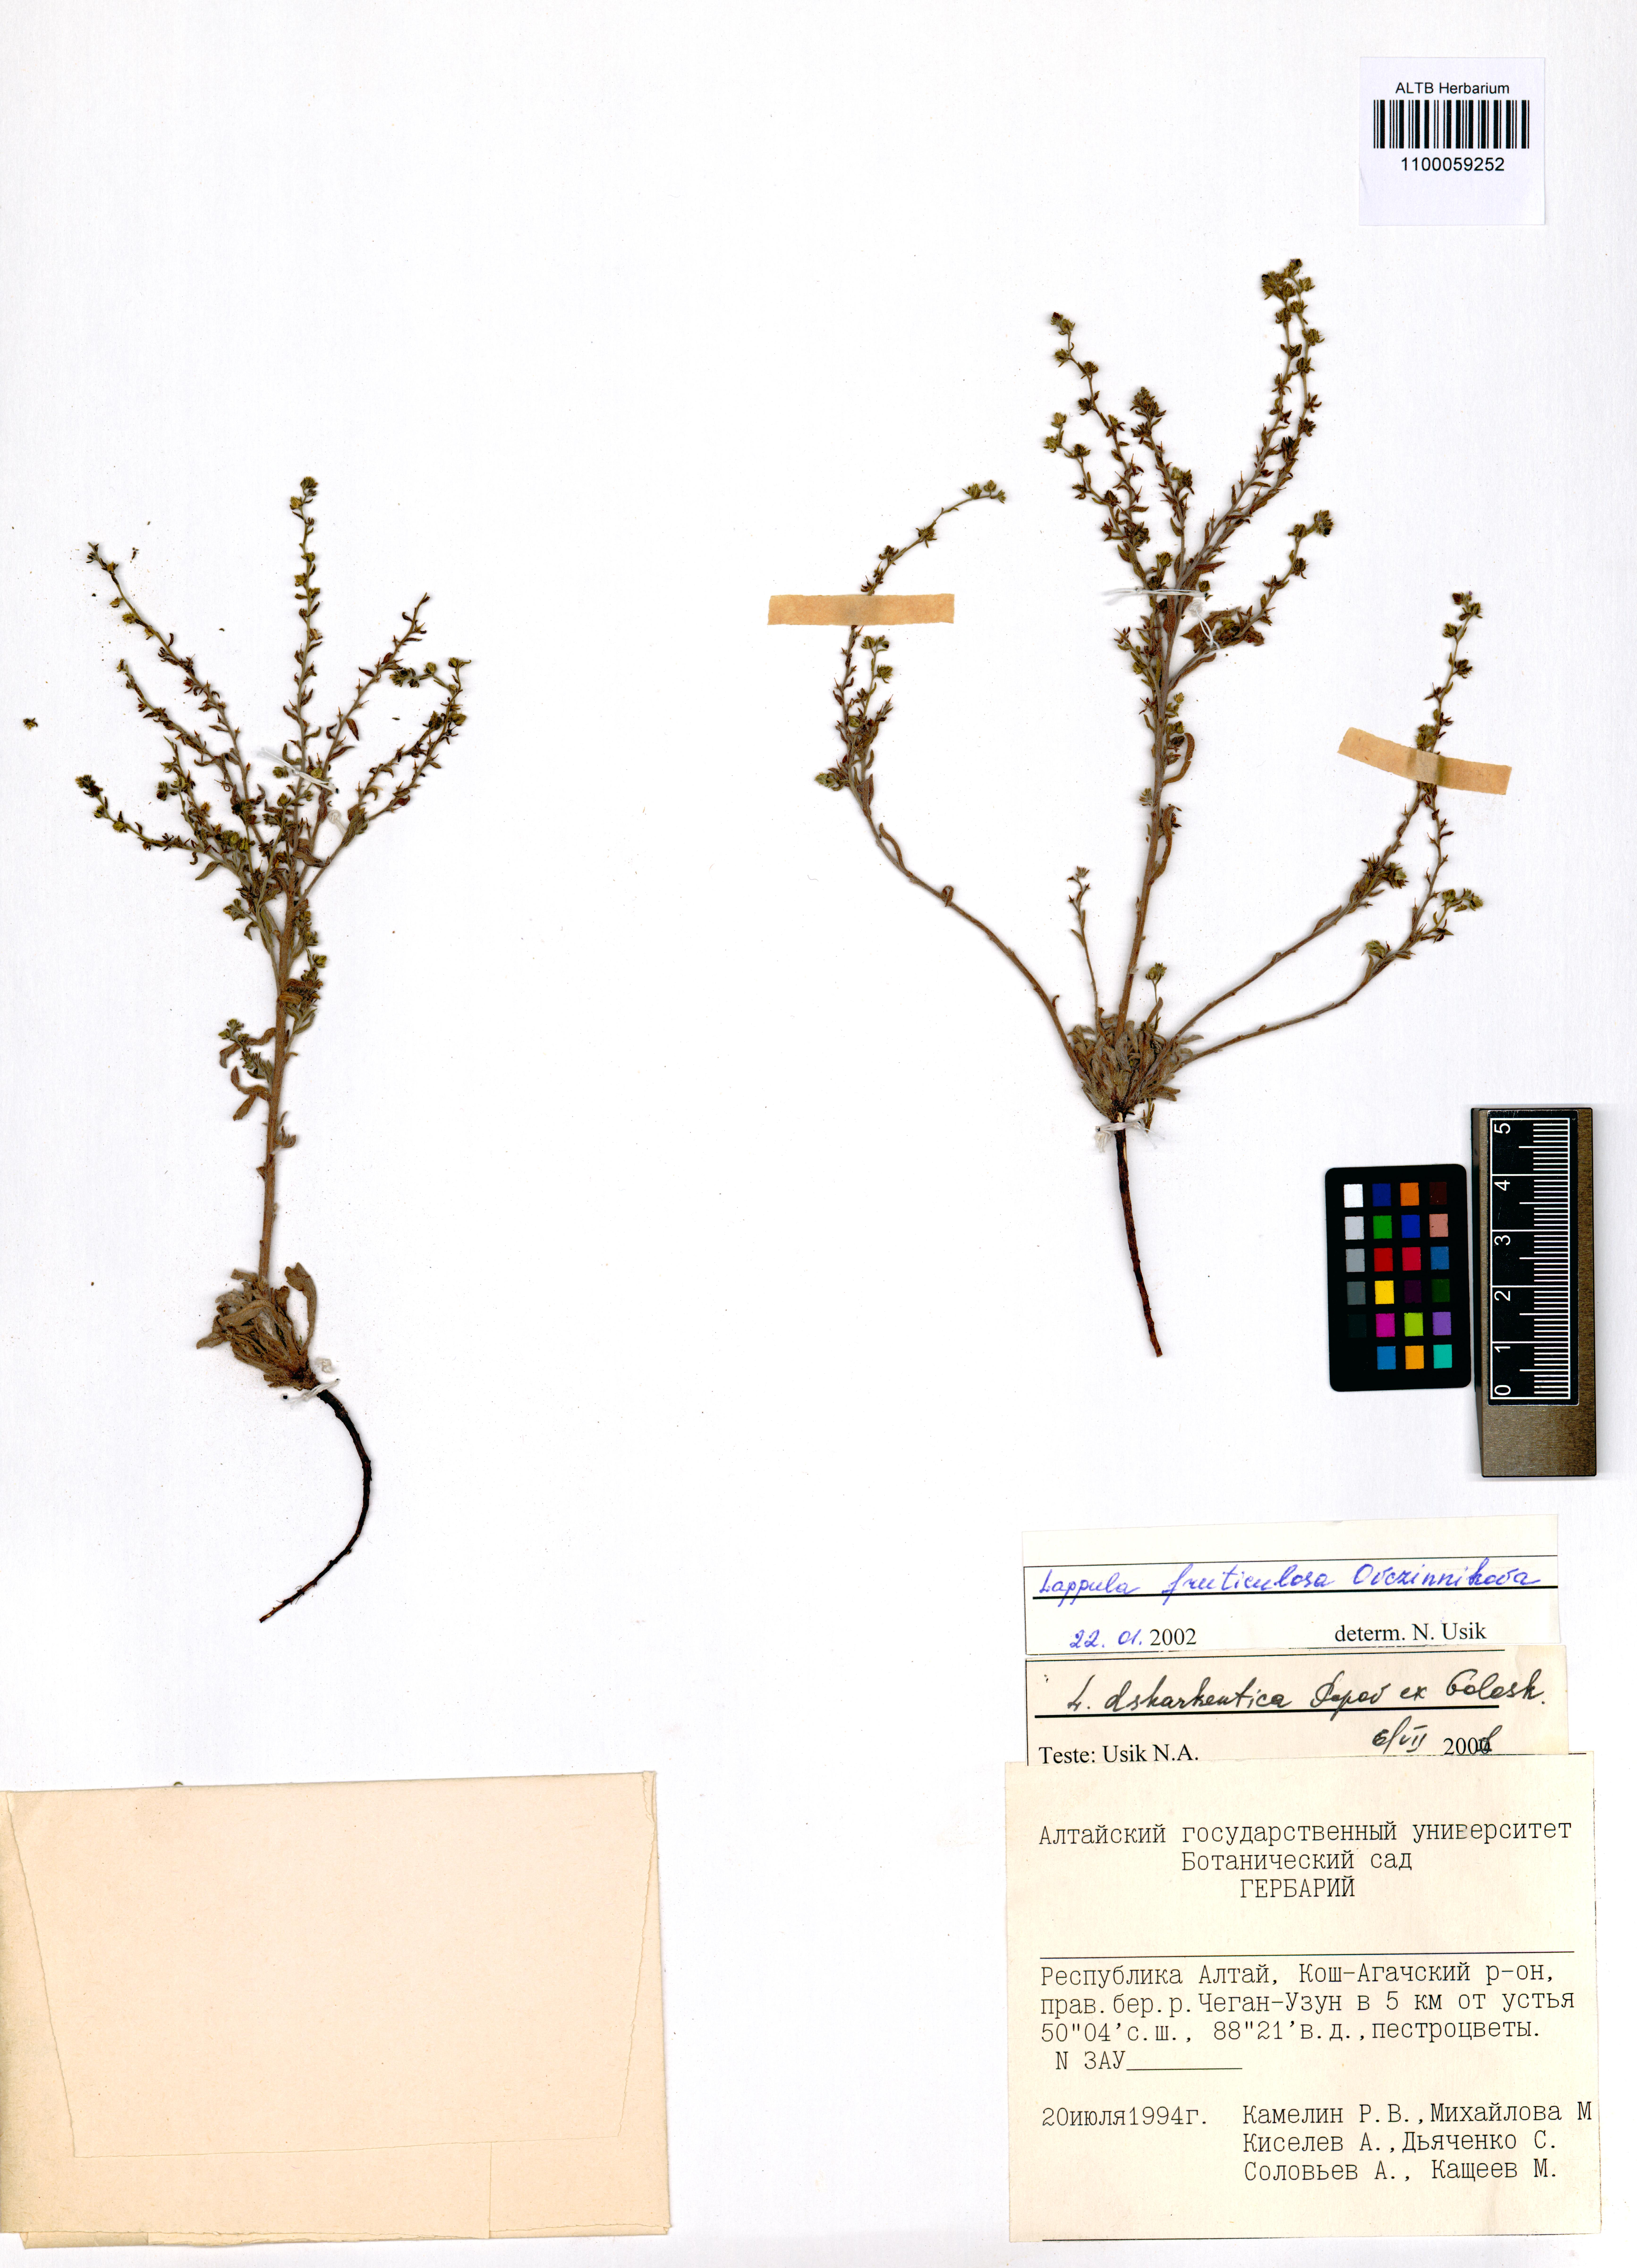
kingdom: Plantae
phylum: Tracheophyta
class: Magnoliopsida
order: Boraginales
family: Boraginaceae
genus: Lappula
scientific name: Lappula fruticulosa
